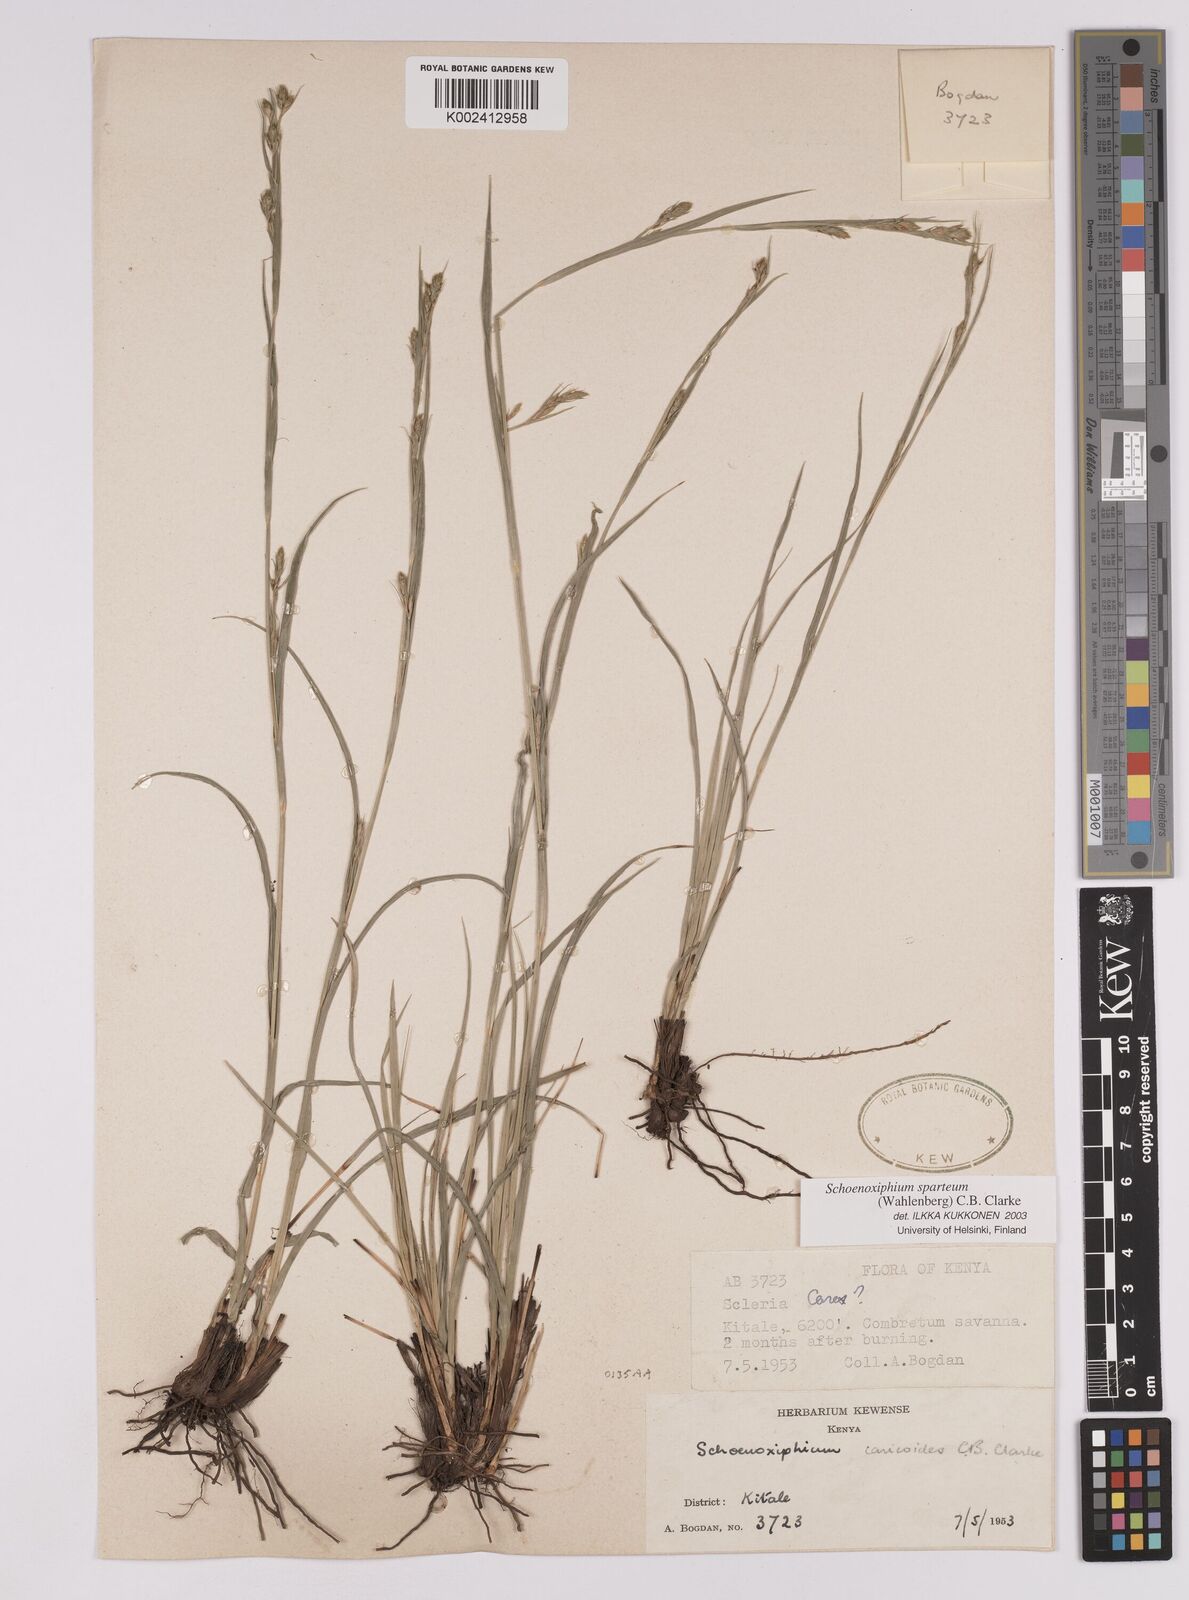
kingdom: Plantae
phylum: Tracheophyta
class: Liliopsida
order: Poales
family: Cyperaceae
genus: Carex
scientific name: Carex schimperiana
